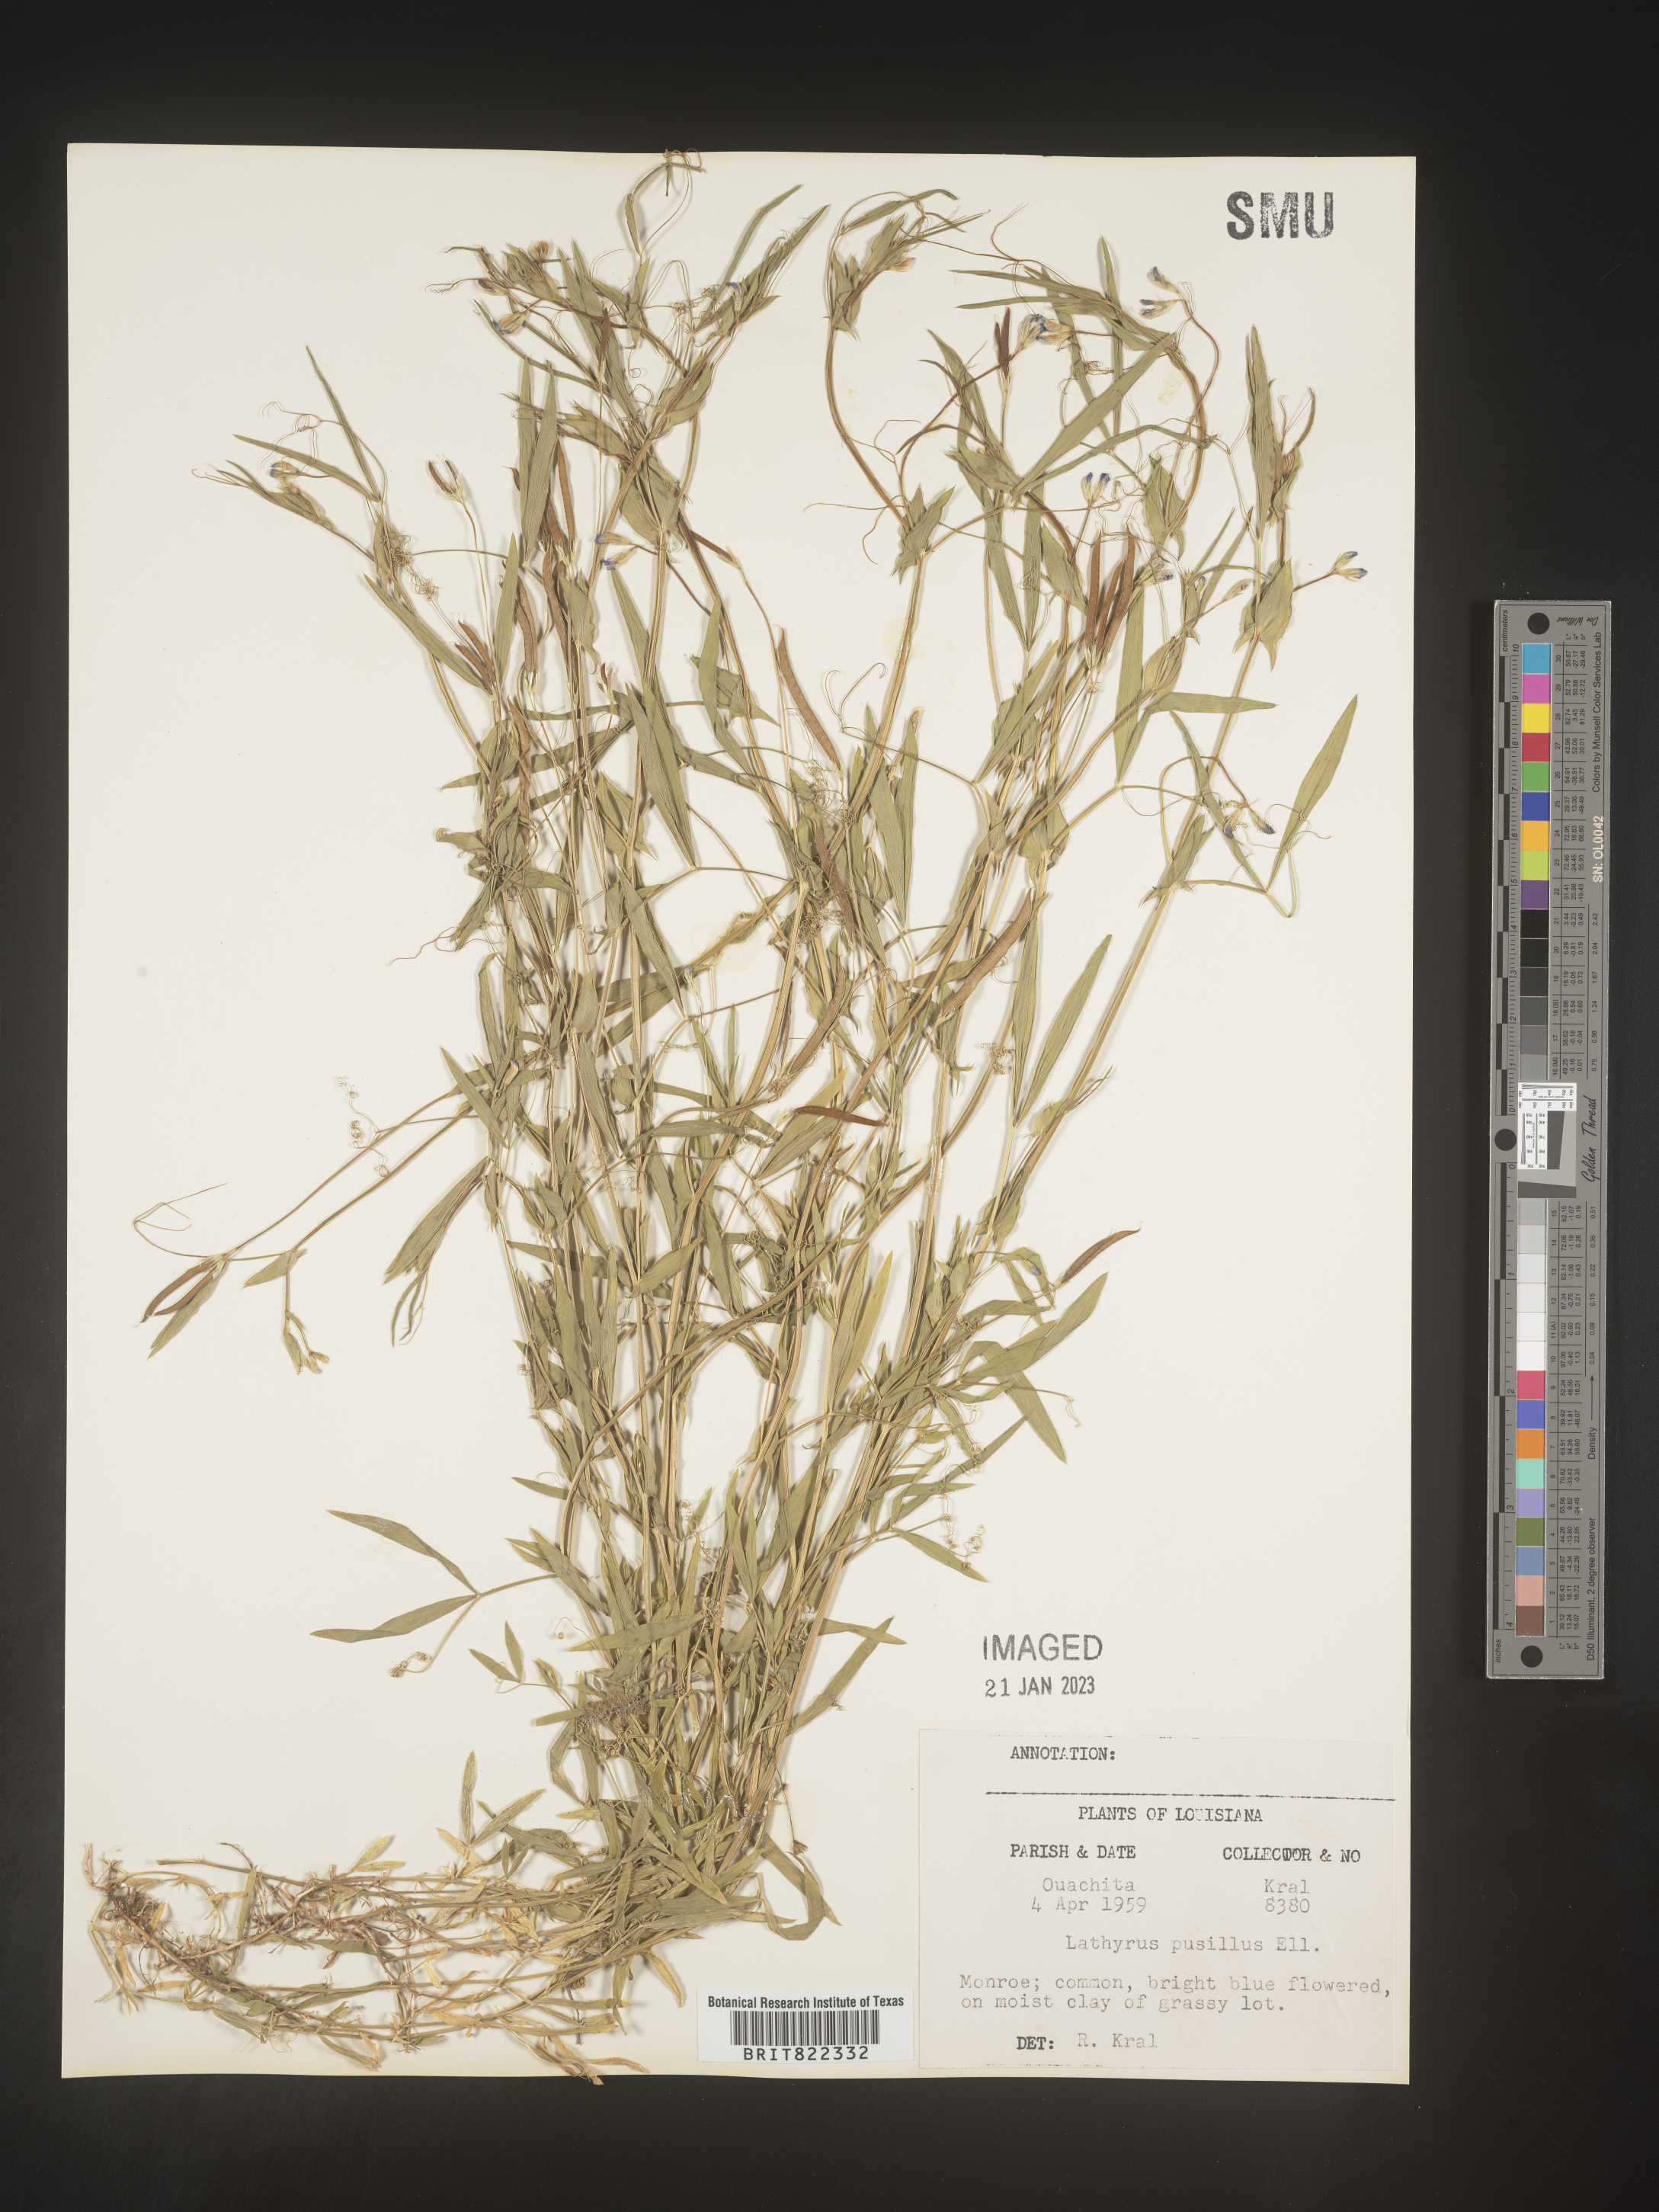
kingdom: Plantae
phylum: Tracheophyta
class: Magnoliopsida
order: Fabales
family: Fabaceae
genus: Lathyrus
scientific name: Lathyrus
